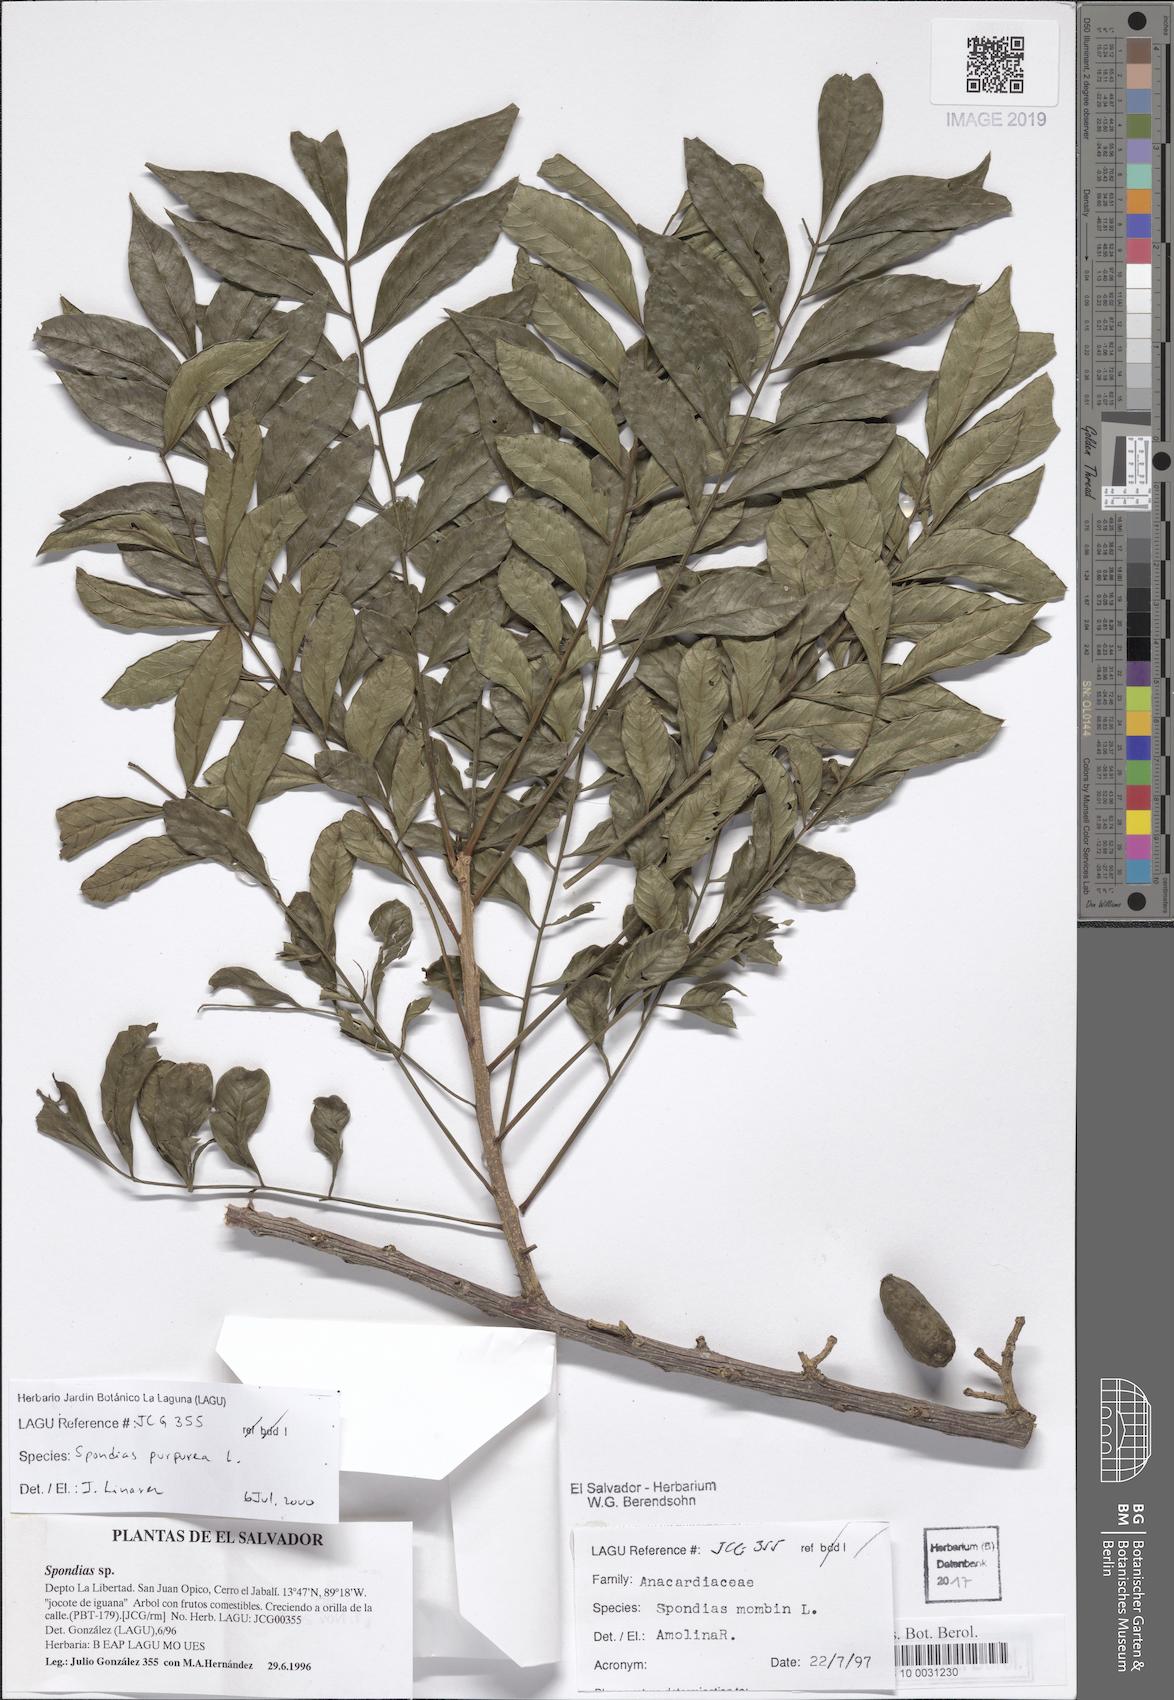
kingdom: Plantae
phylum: Tracheophyta
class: Magnoliopsida
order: Sapindales
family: Anacardiaceae
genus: Spondias
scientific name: Spondias purpurea
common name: Purple mombin
